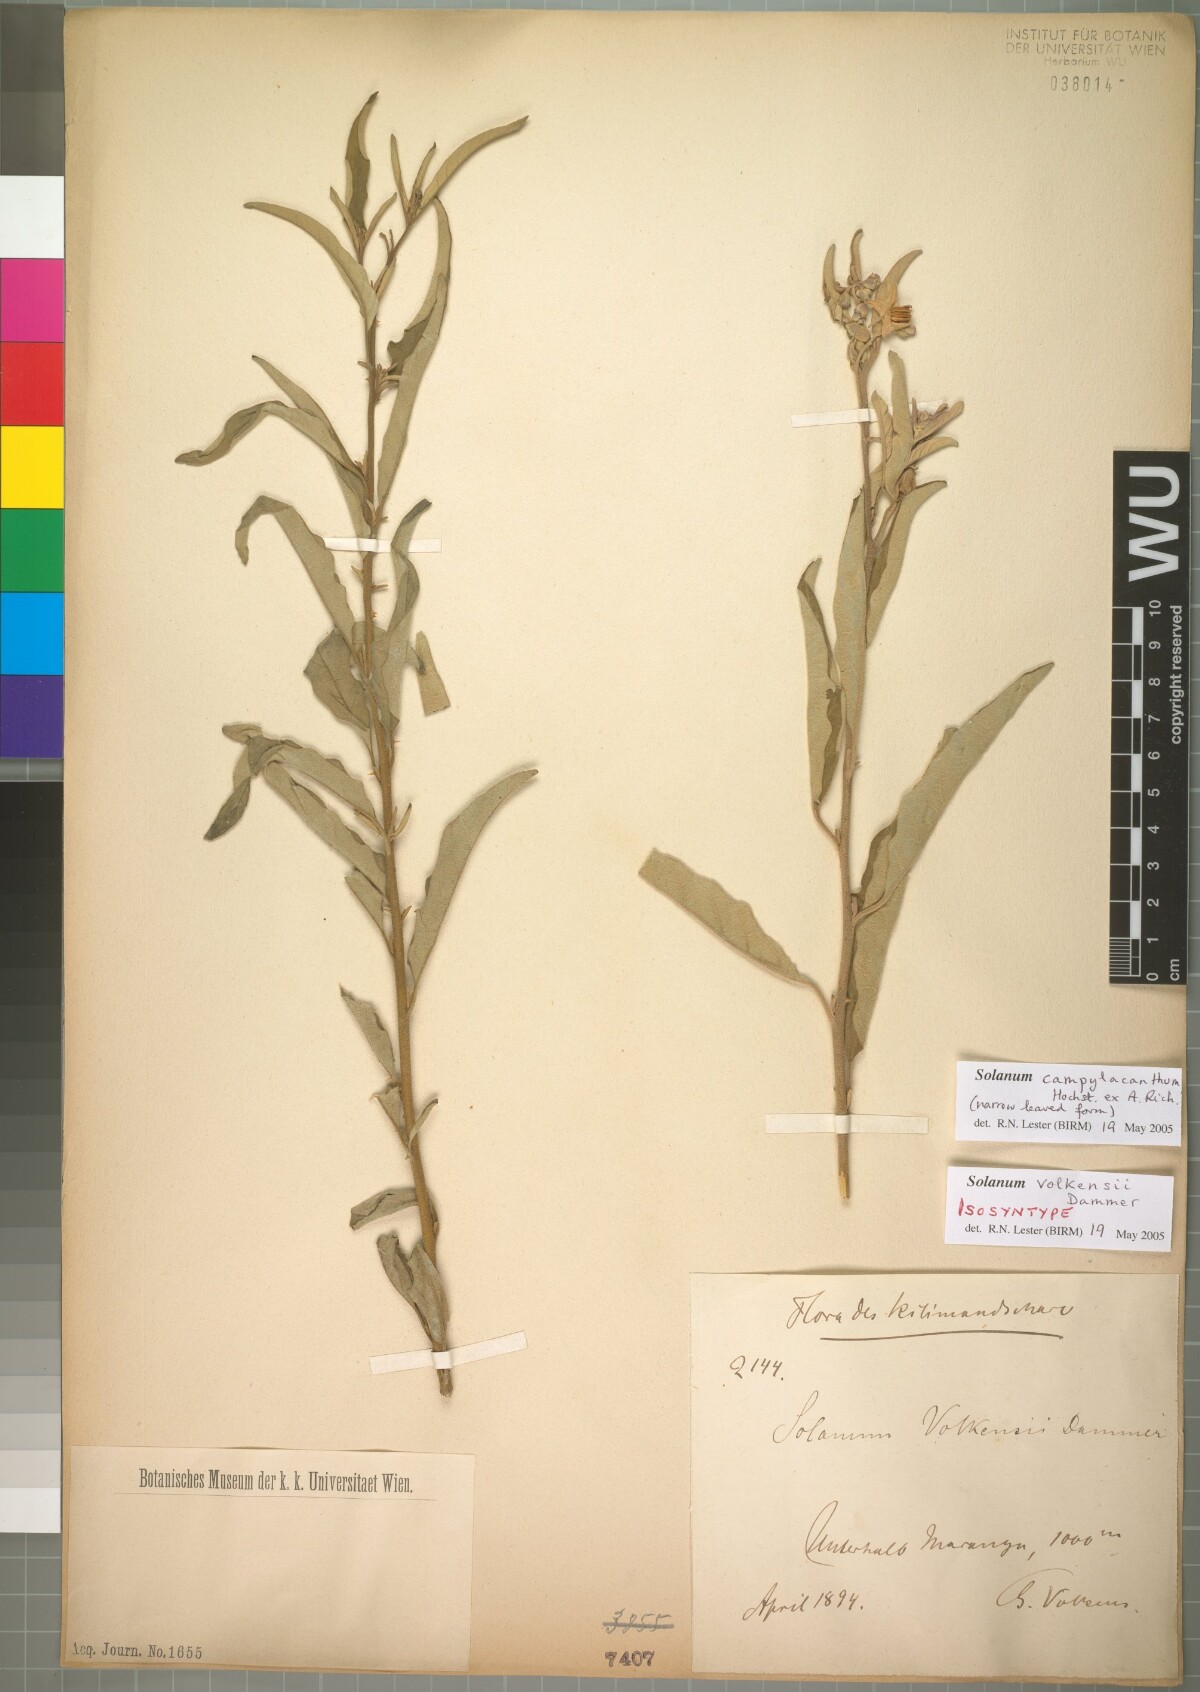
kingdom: Plantae
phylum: Tracheophyta
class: Magnoliopsida
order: Solanales
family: Solanaceae
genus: Solanum
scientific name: Solanum campylacanthum
